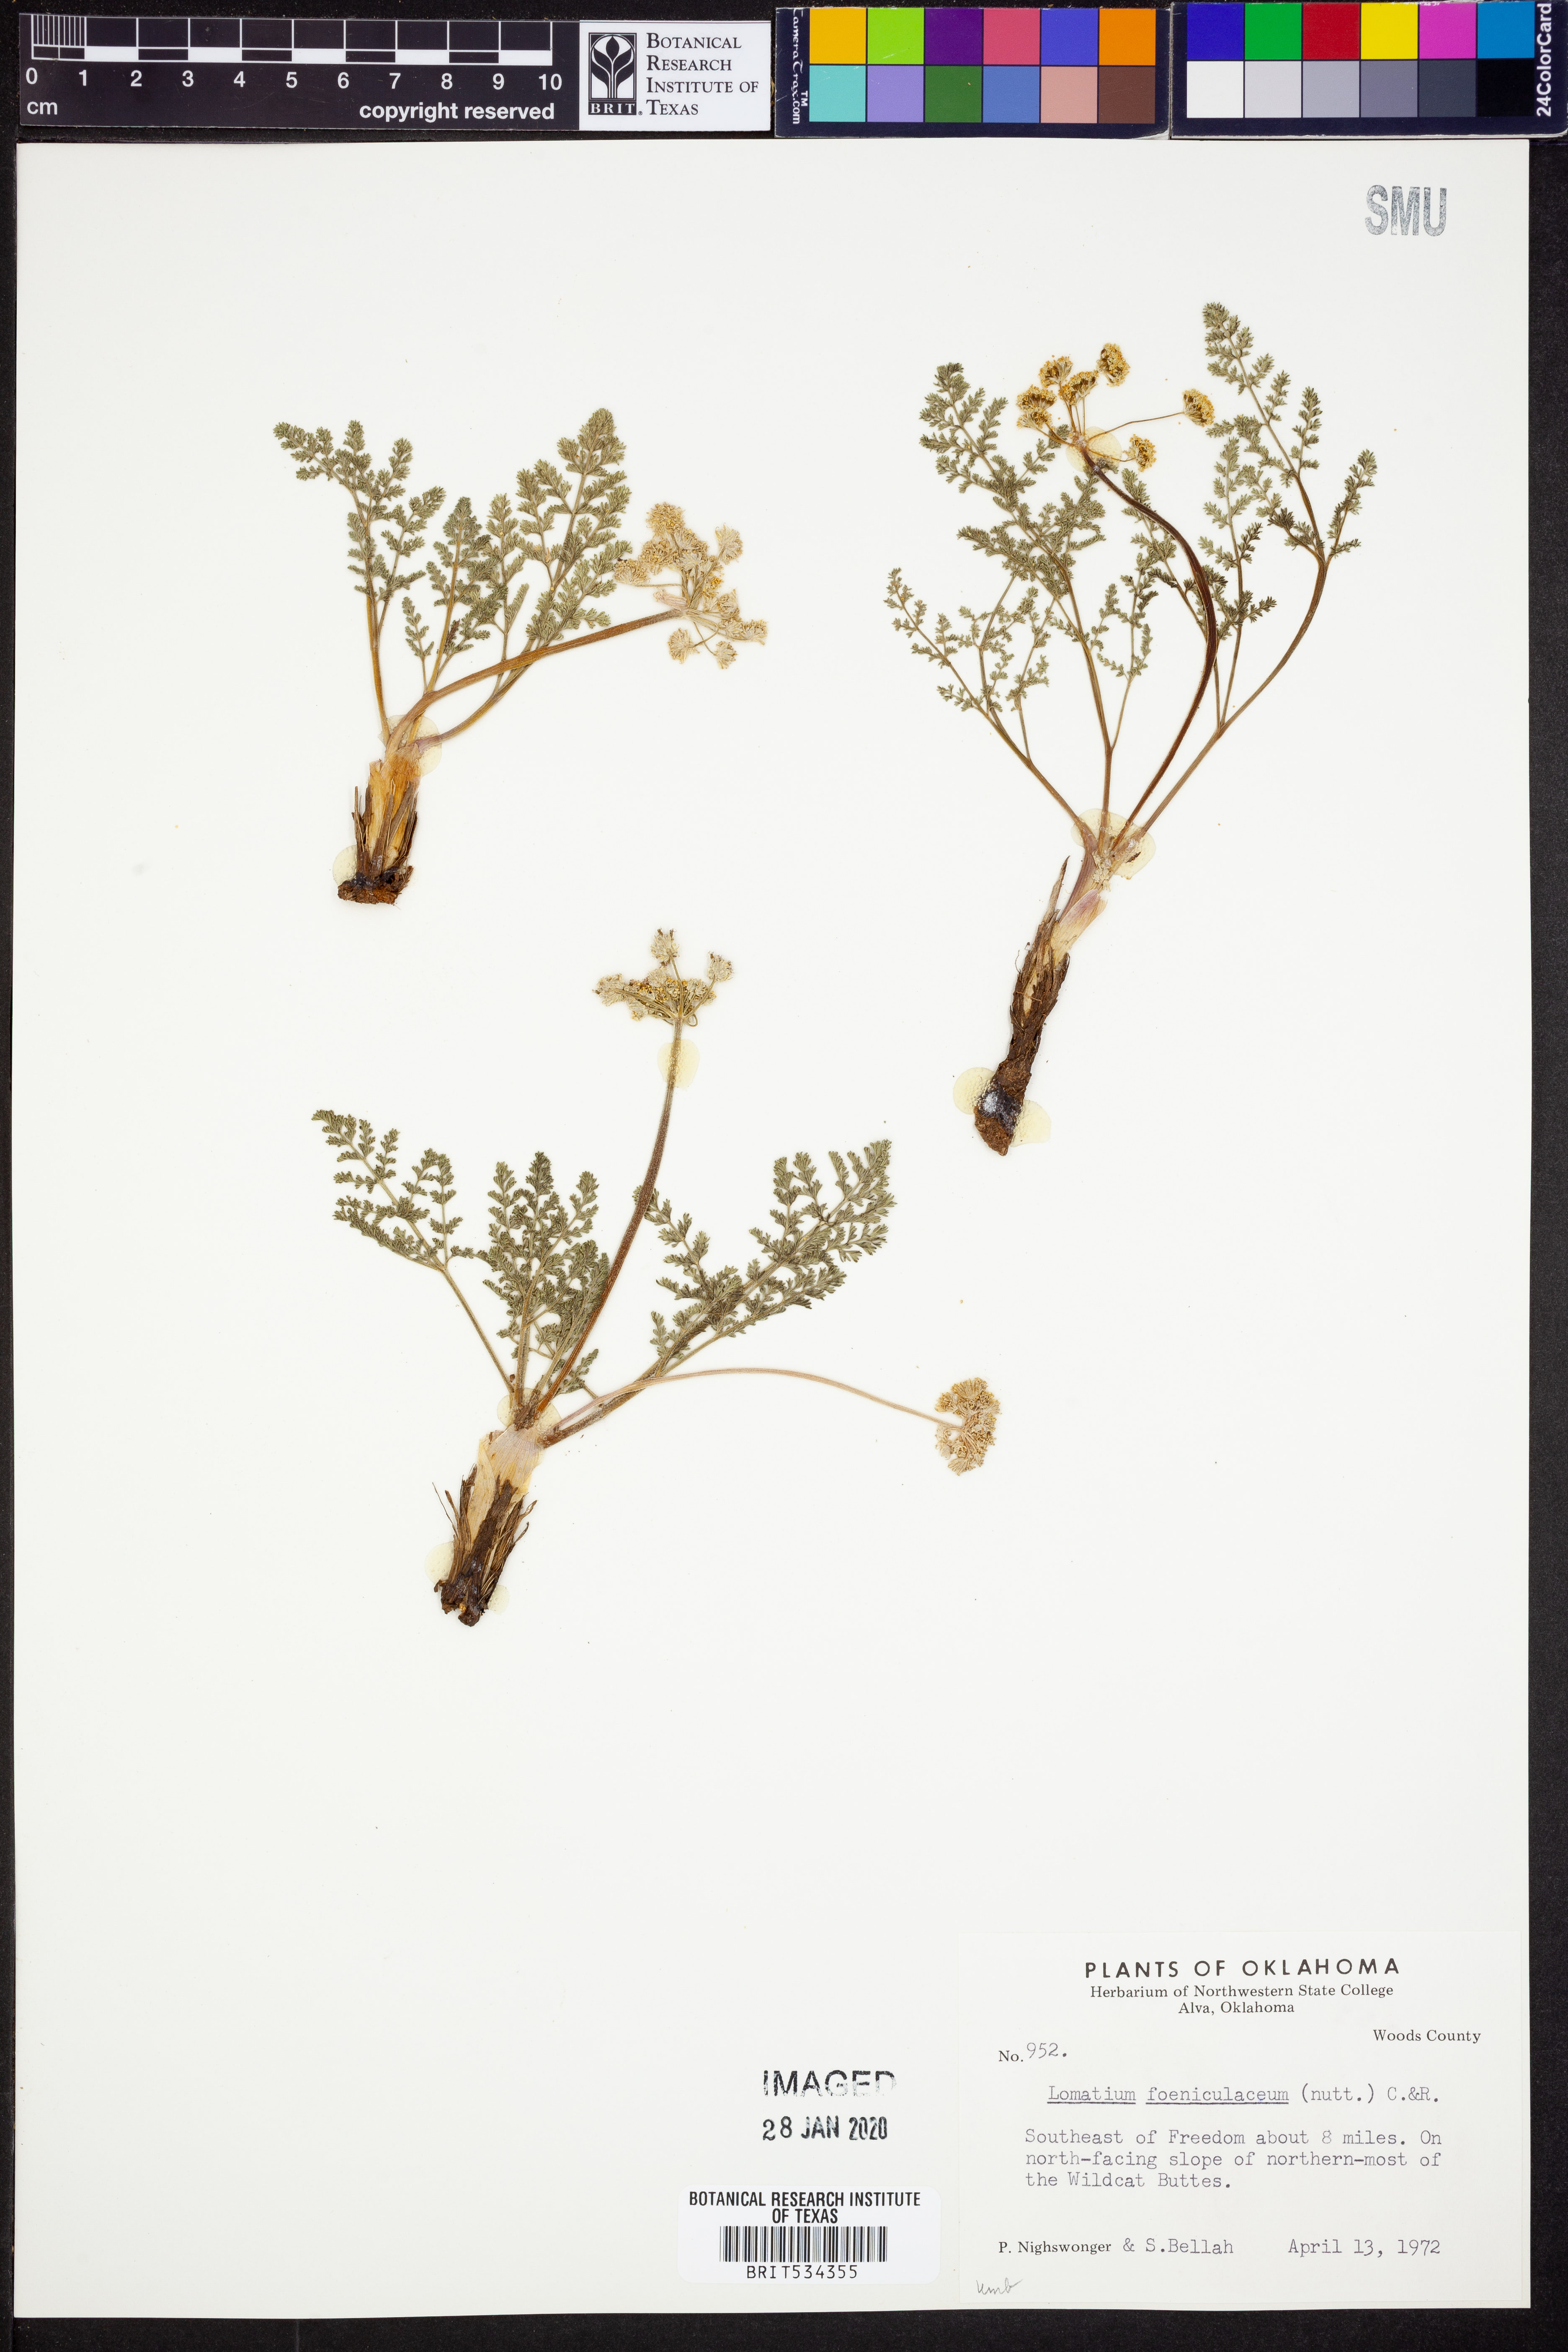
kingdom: Plantae
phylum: Tracheophyta
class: Magnoliopsida
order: Apiales
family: Apiaceae
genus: Lomatium
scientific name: Lomatium foeniculaceum
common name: Desert-parsley
